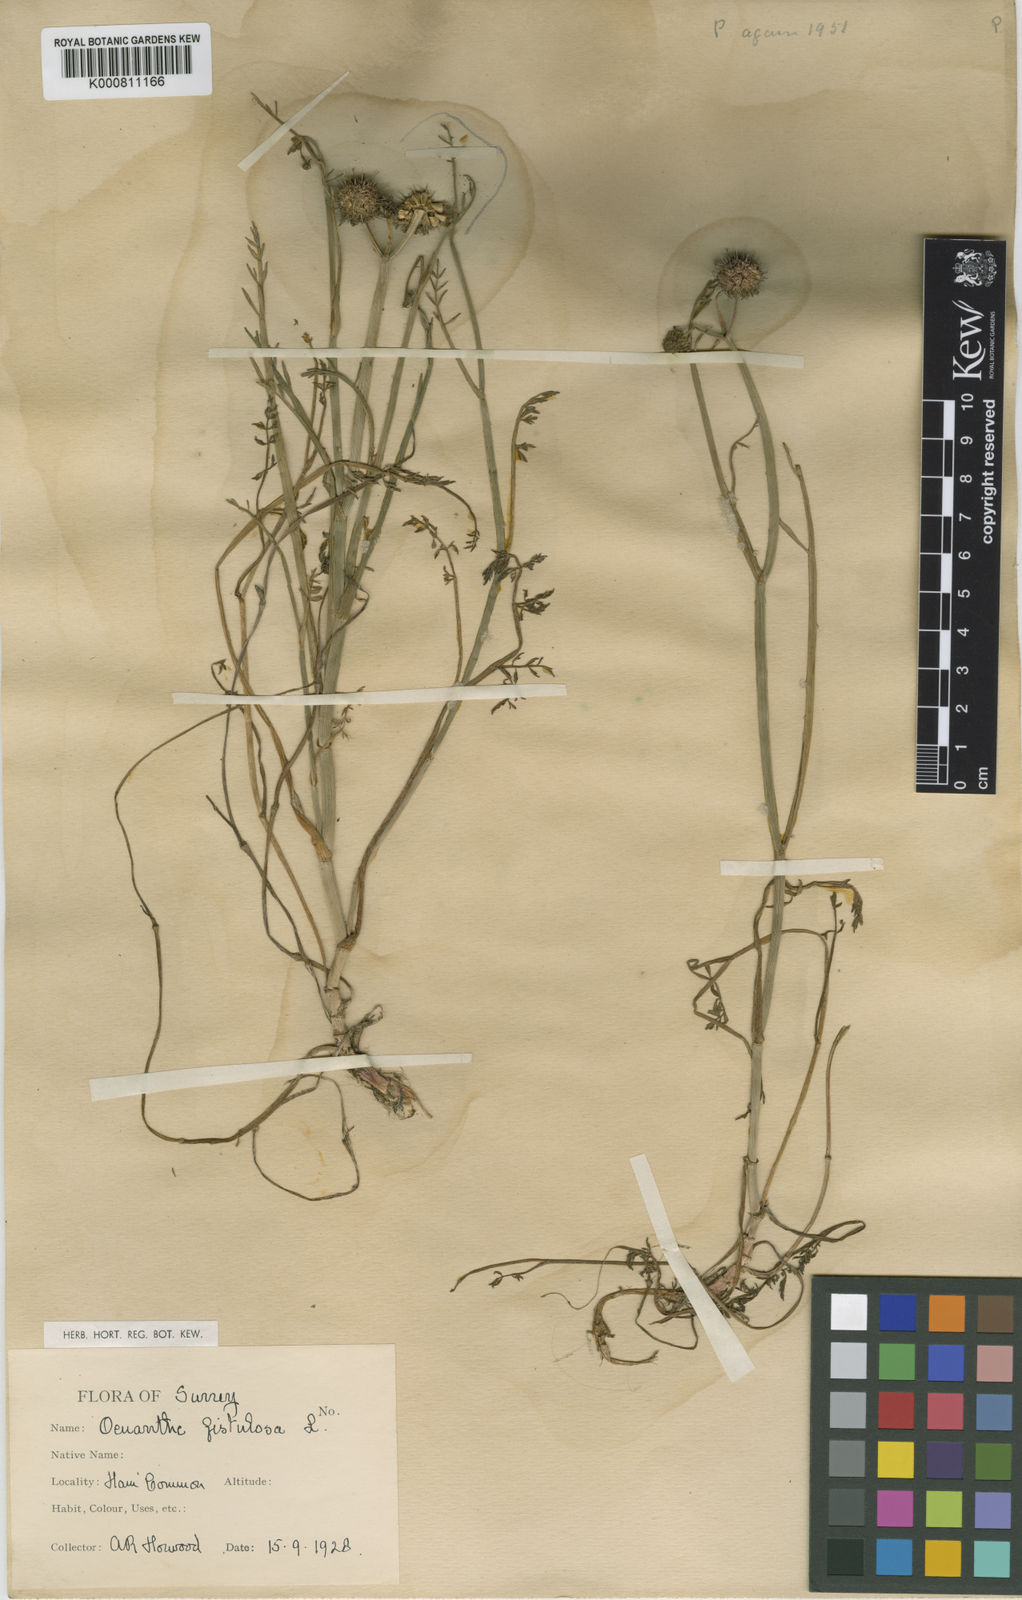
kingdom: Plantae
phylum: Tracheophyta
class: Magnoliopsida
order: Apiales
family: Apiaceae
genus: Oenanthe
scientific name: Oenanthe fistulosa
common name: Tubular water-dropwort
